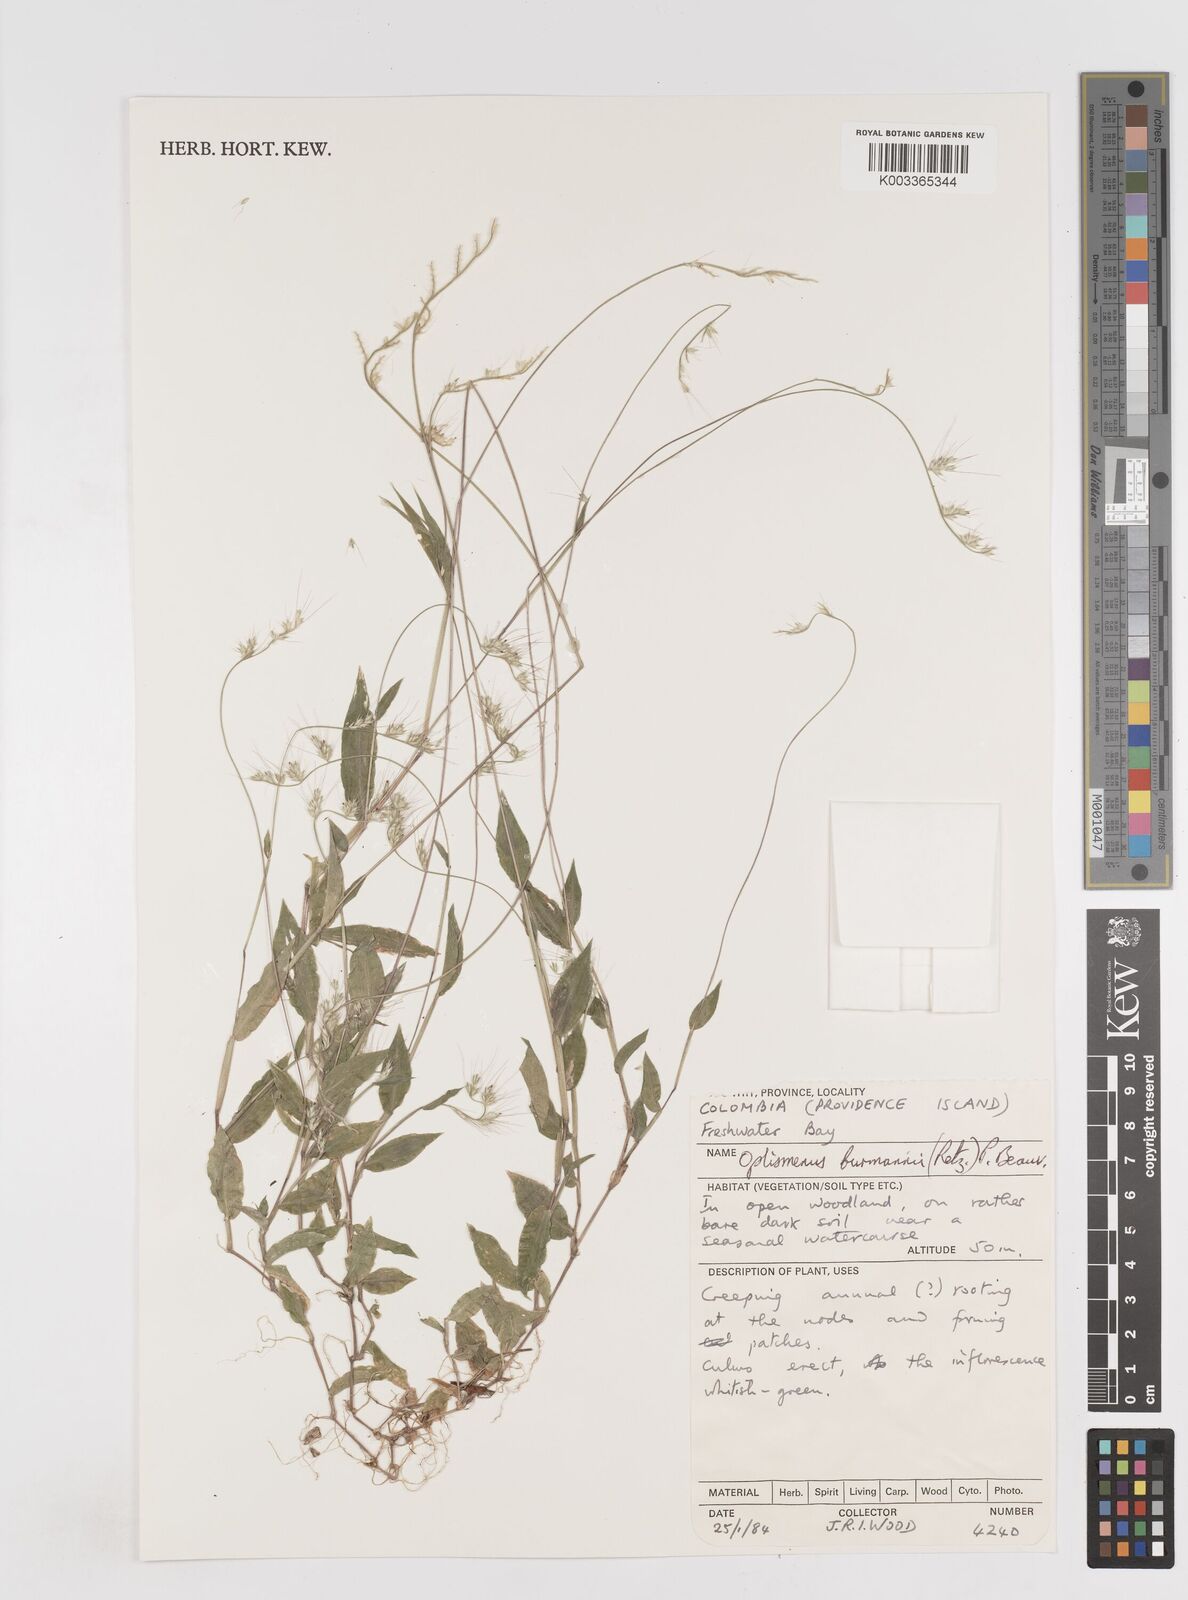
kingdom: Plantae
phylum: Tracheophyta
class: Liliopsida
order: Poales
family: Poaceae
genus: Oplismenus
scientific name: Oplismenus burmanni
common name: Burmann's basketgrass
